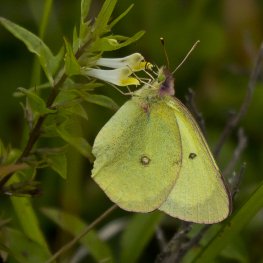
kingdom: Animalia
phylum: Arthropoda
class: Insecta
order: Lepidoptera
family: Pieridae
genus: Colias
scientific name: Colias interior
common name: Pink-edged Sulphur
